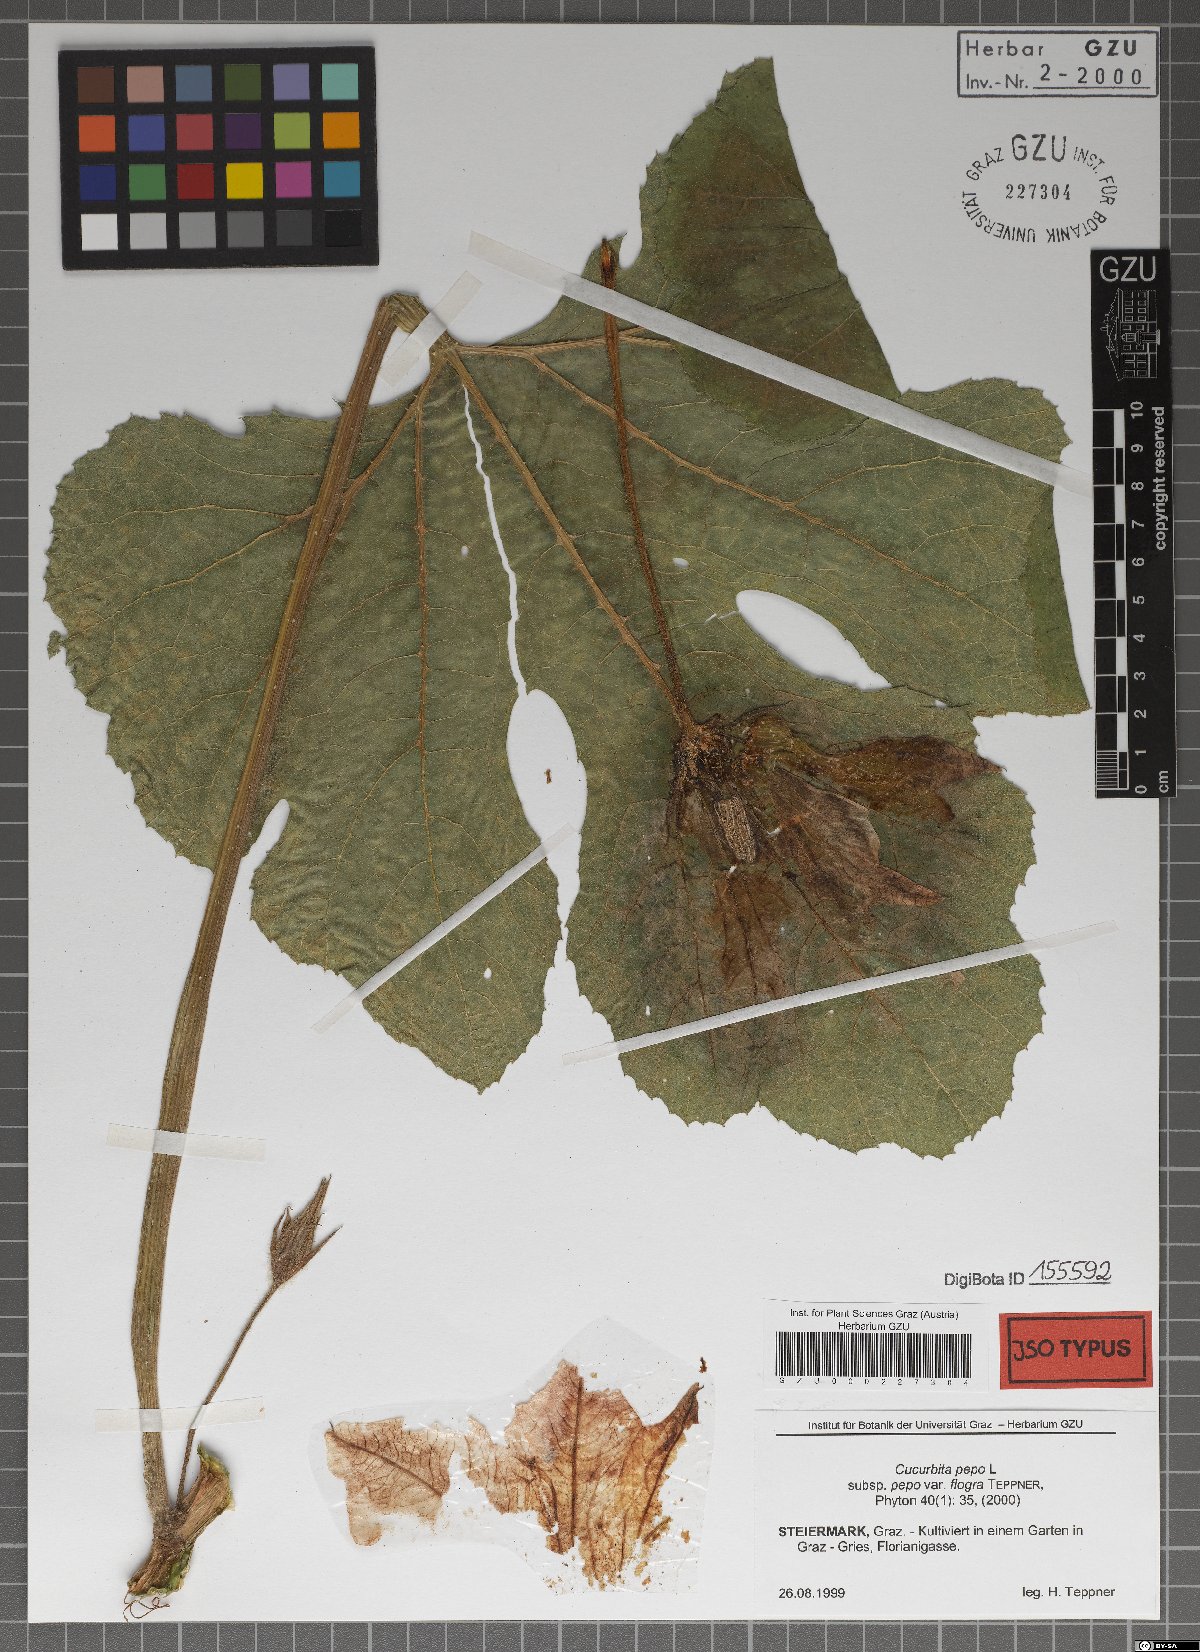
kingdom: Plantae
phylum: Tracheophyta
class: Magnoliopsida
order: Cucurbitales
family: Cucurbitaceae
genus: Cucurbita
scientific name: Cucurbita pepo
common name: Marrow
